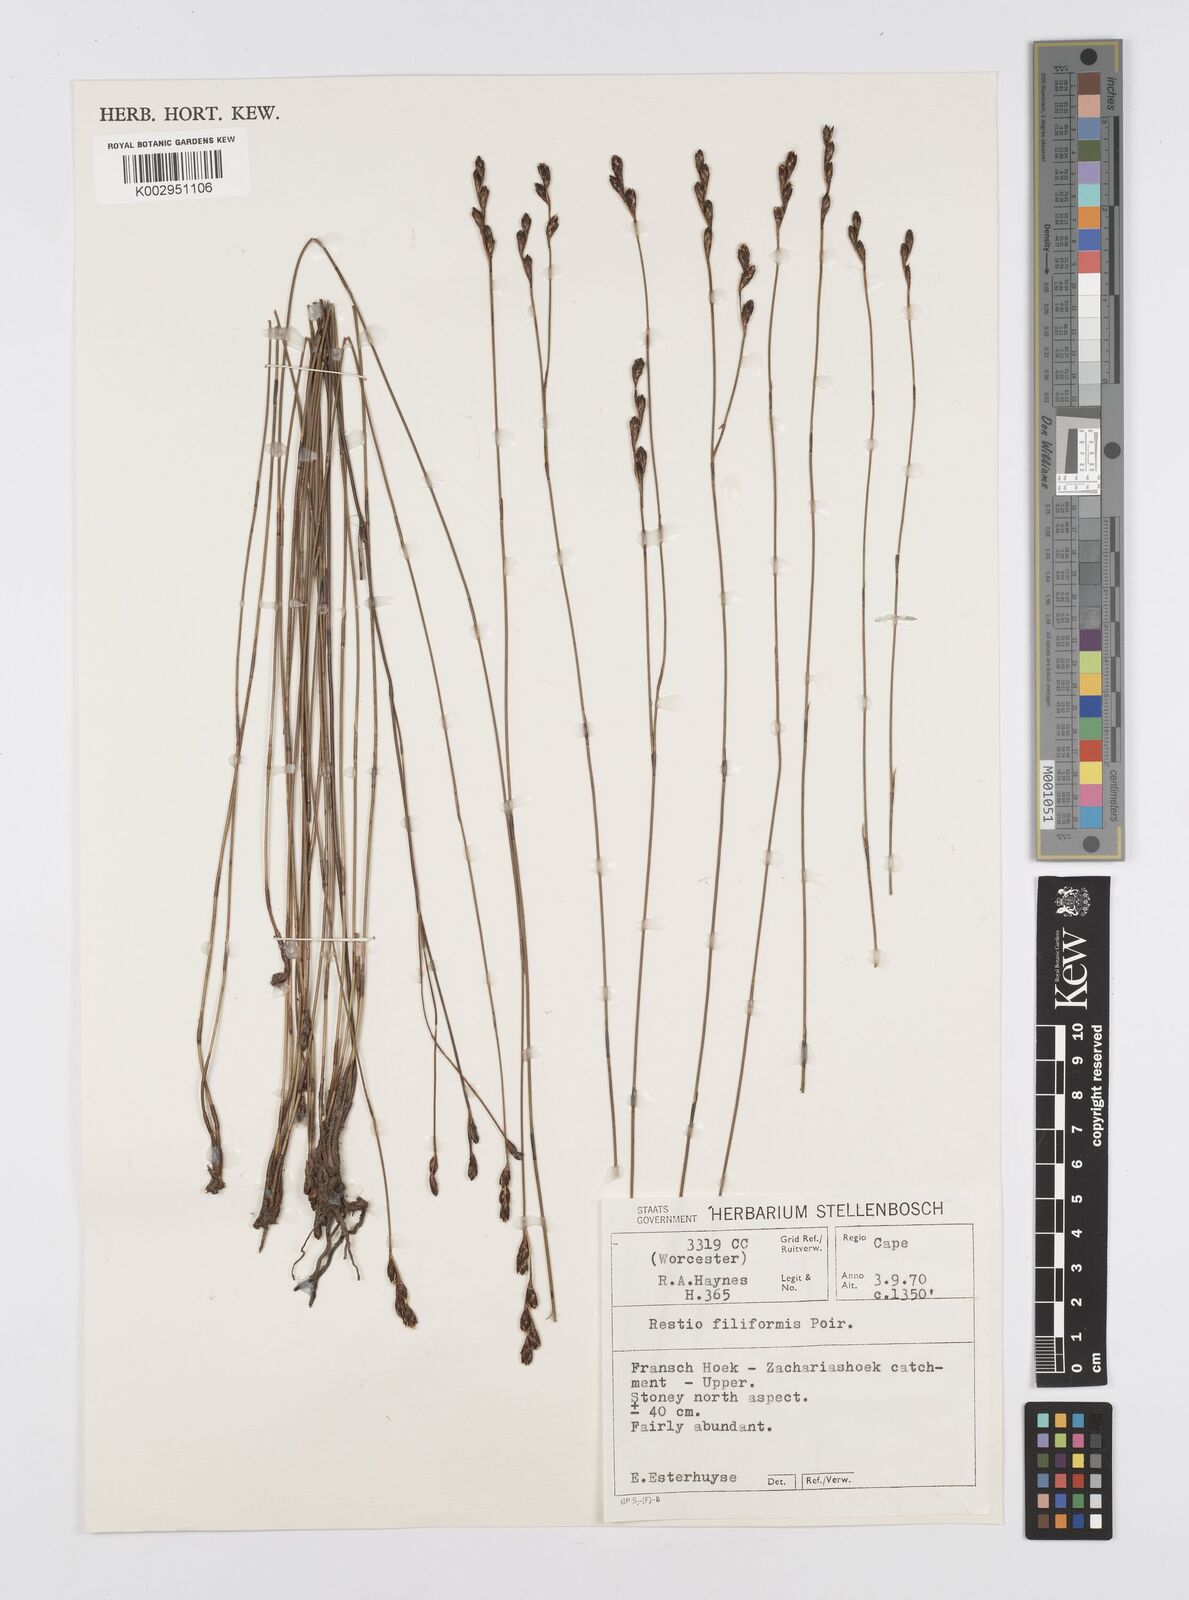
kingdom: Plantae
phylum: Tracheophyta
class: Liliopsida
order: Poales
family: Restionaceae
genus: Restio
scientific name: Restio filiformis
